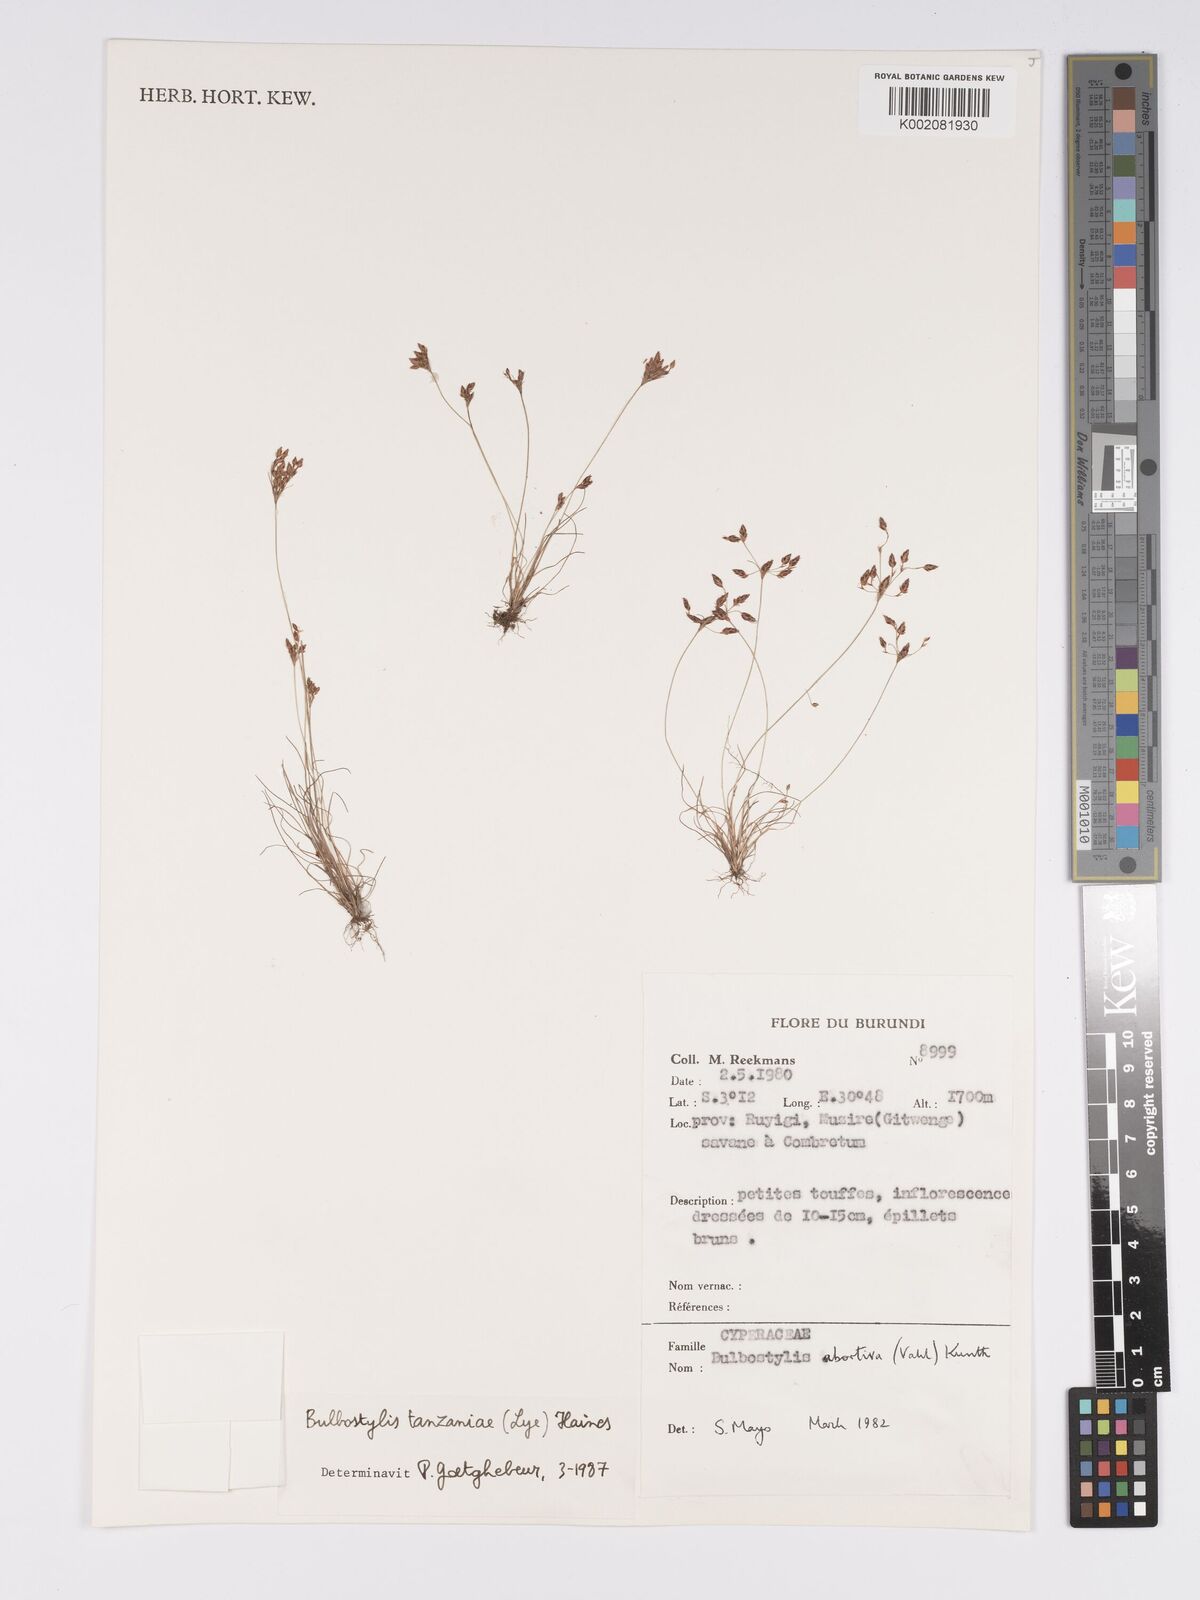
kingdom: Plantae
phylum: Tracheophyta
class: Liliopsida
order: Poales
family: Cyperaceae
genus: Bulbostylis
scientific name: Bulbostylis tanzaniae
